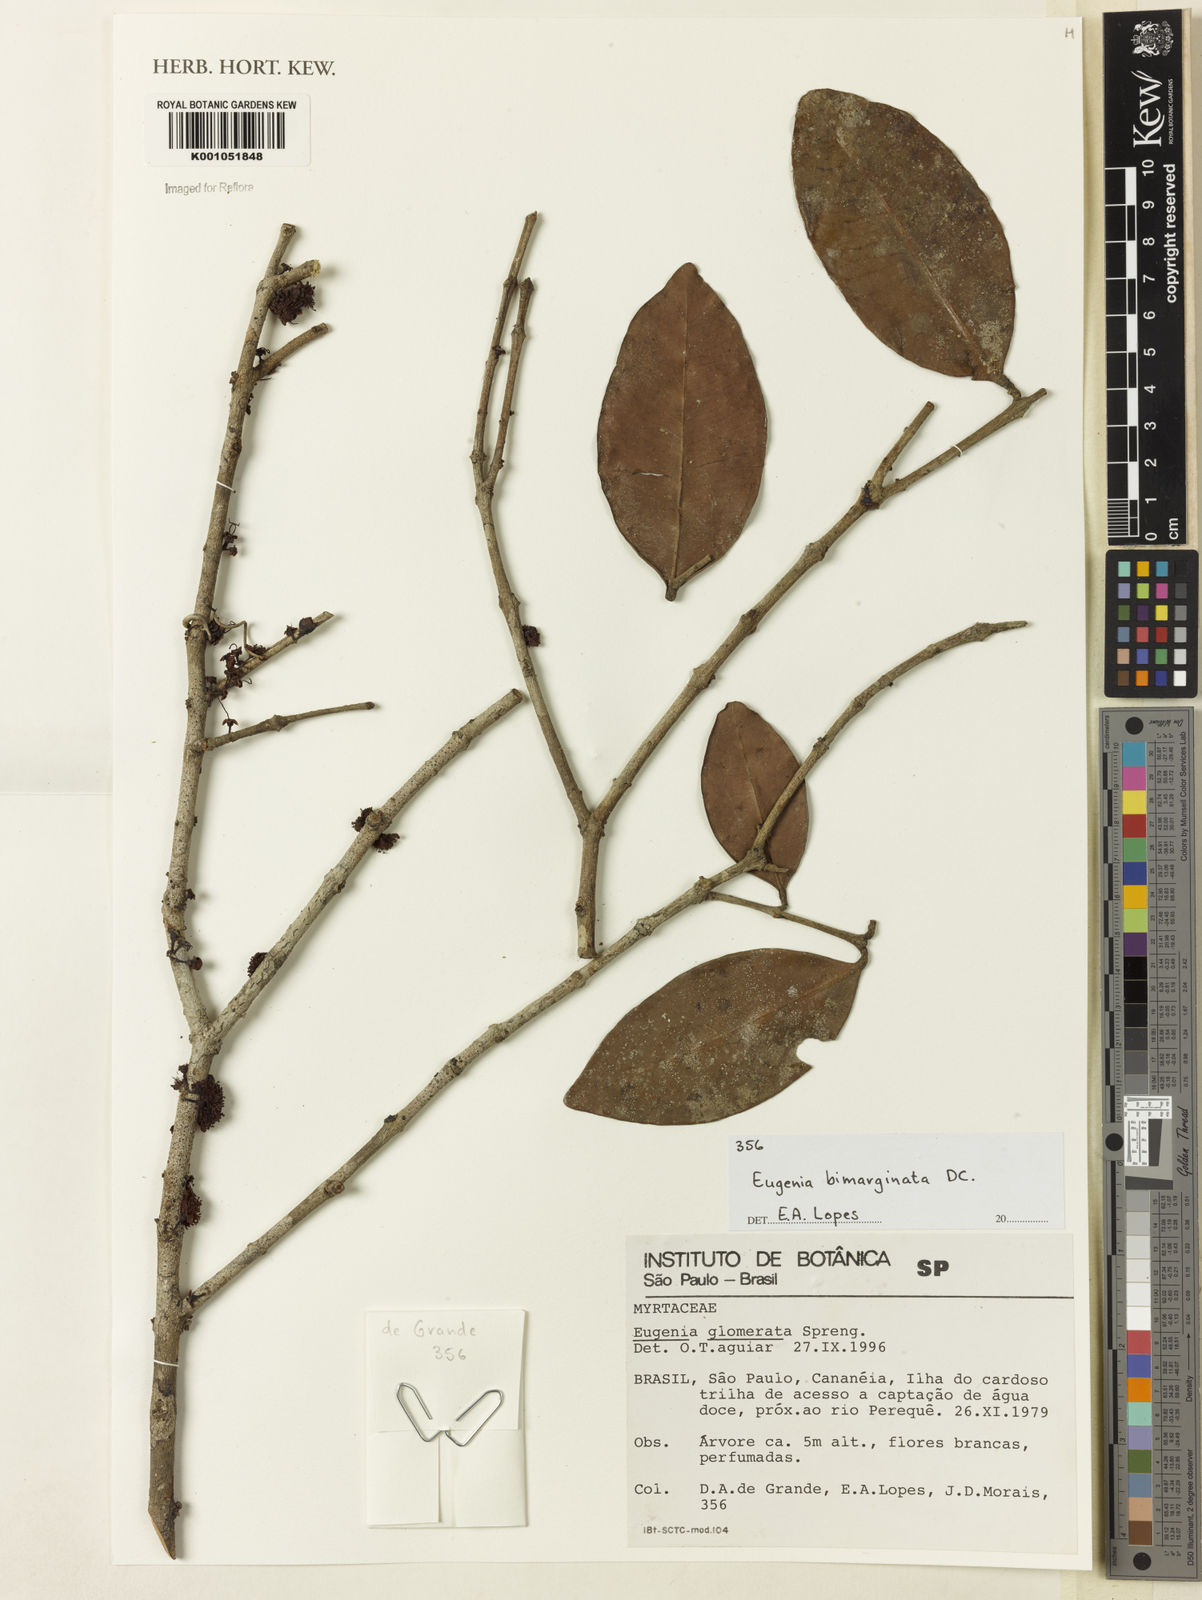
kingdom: Plantae
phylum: Tracheophyta
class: Magnoliopsida
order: Myrtales
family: Myrtaceae
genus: Eugenia
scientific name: Eugenia bimarginata
